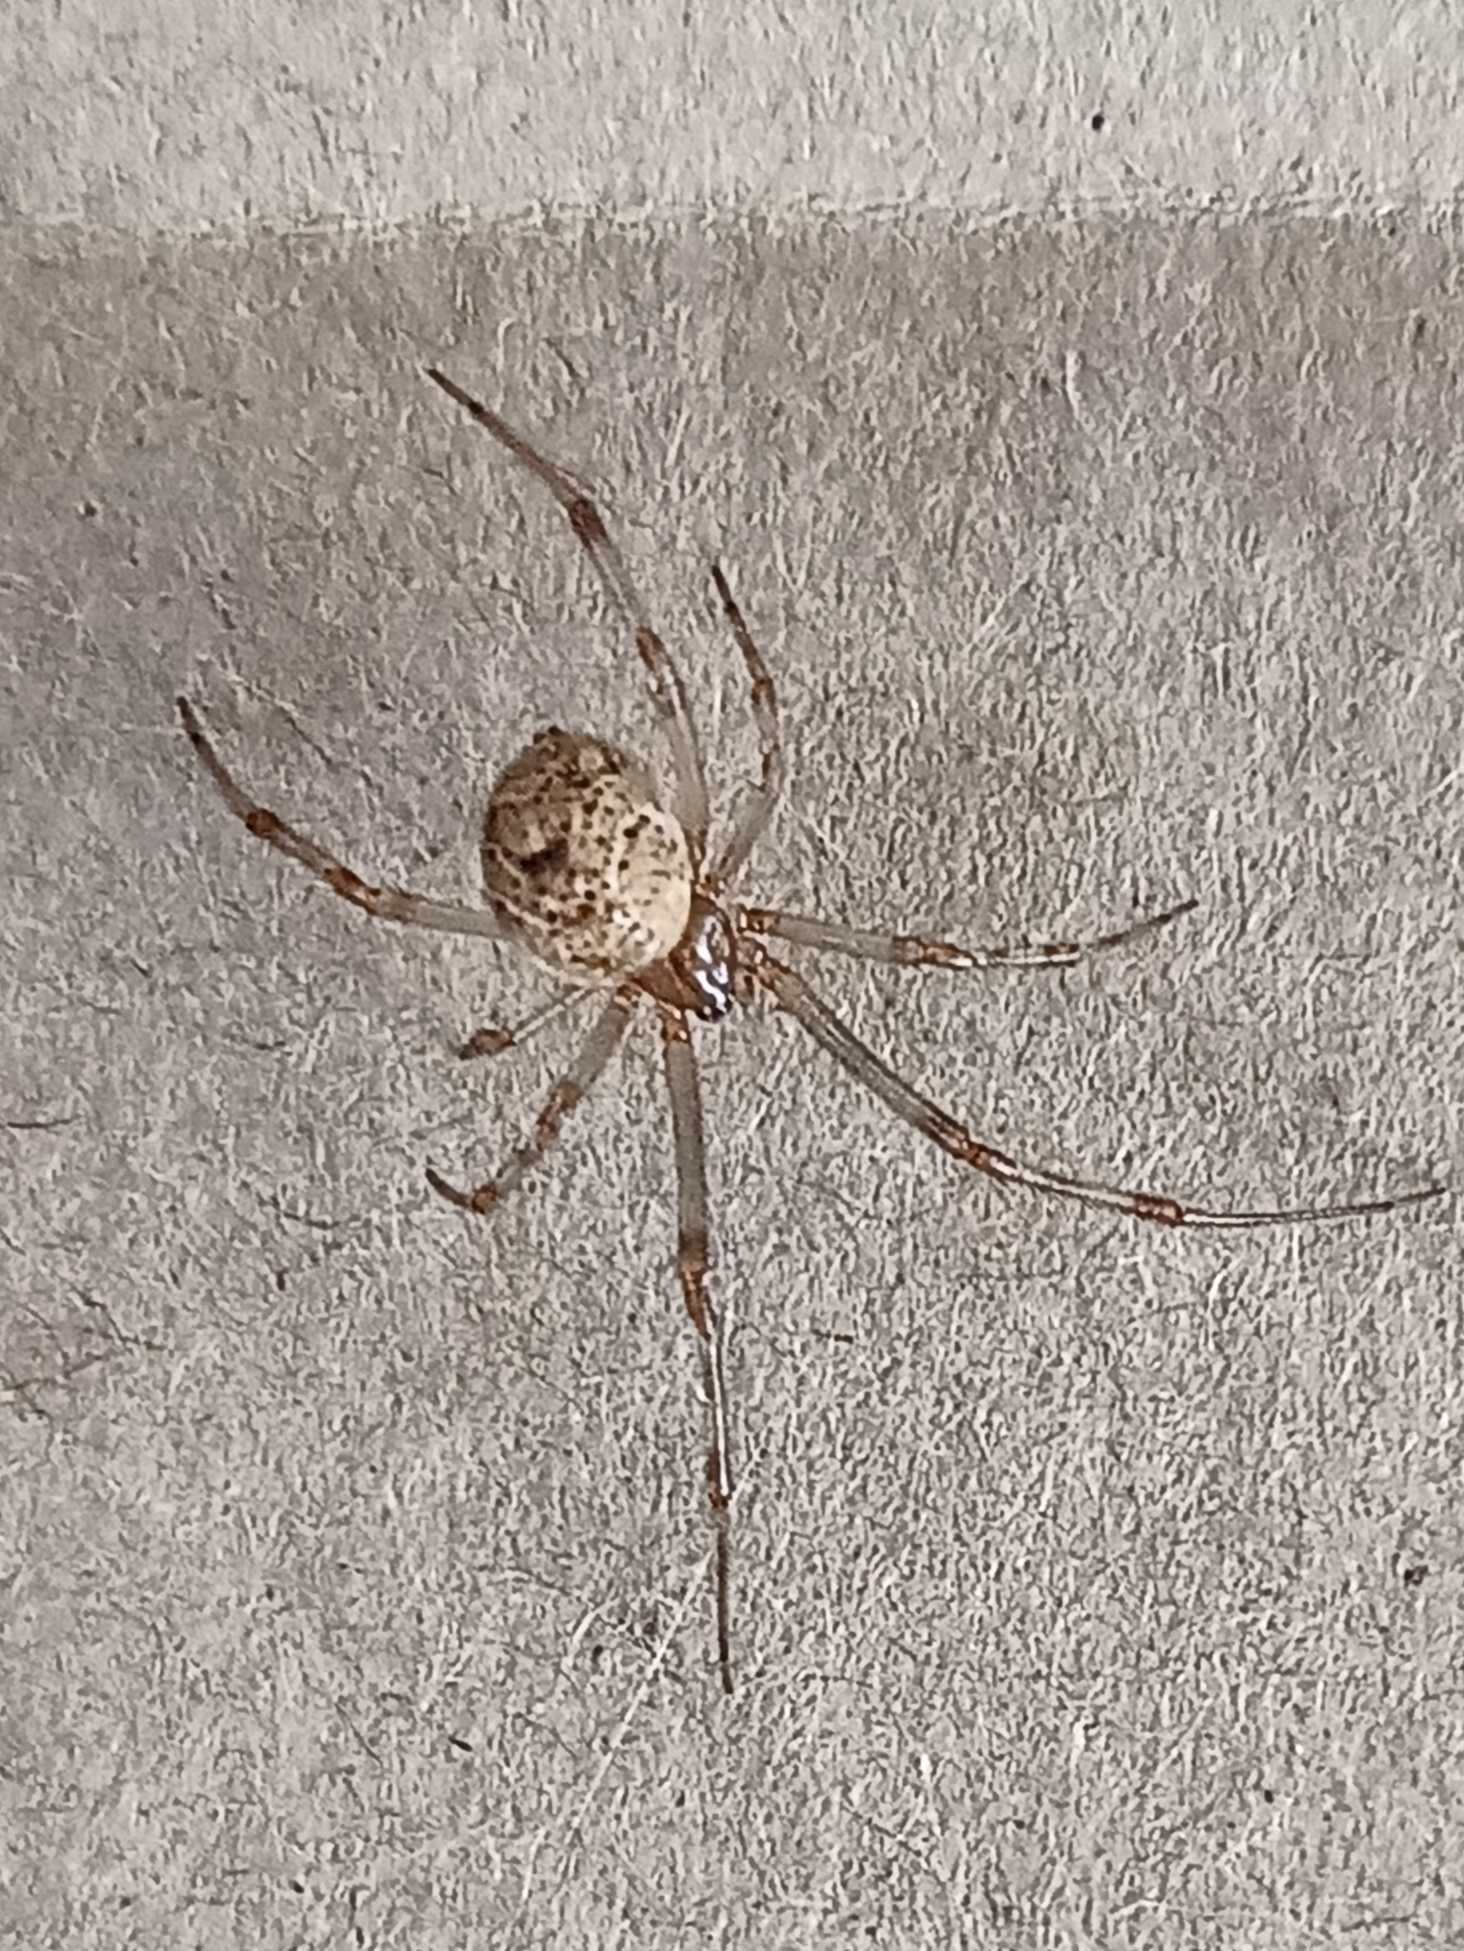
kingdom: Animalia
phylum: Arthropoda
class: Arachnida
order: Araneae
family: Theridiidae
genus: Parasteatoda
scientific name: Parasteatoda tepidariorum
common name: Væksthusspinder
